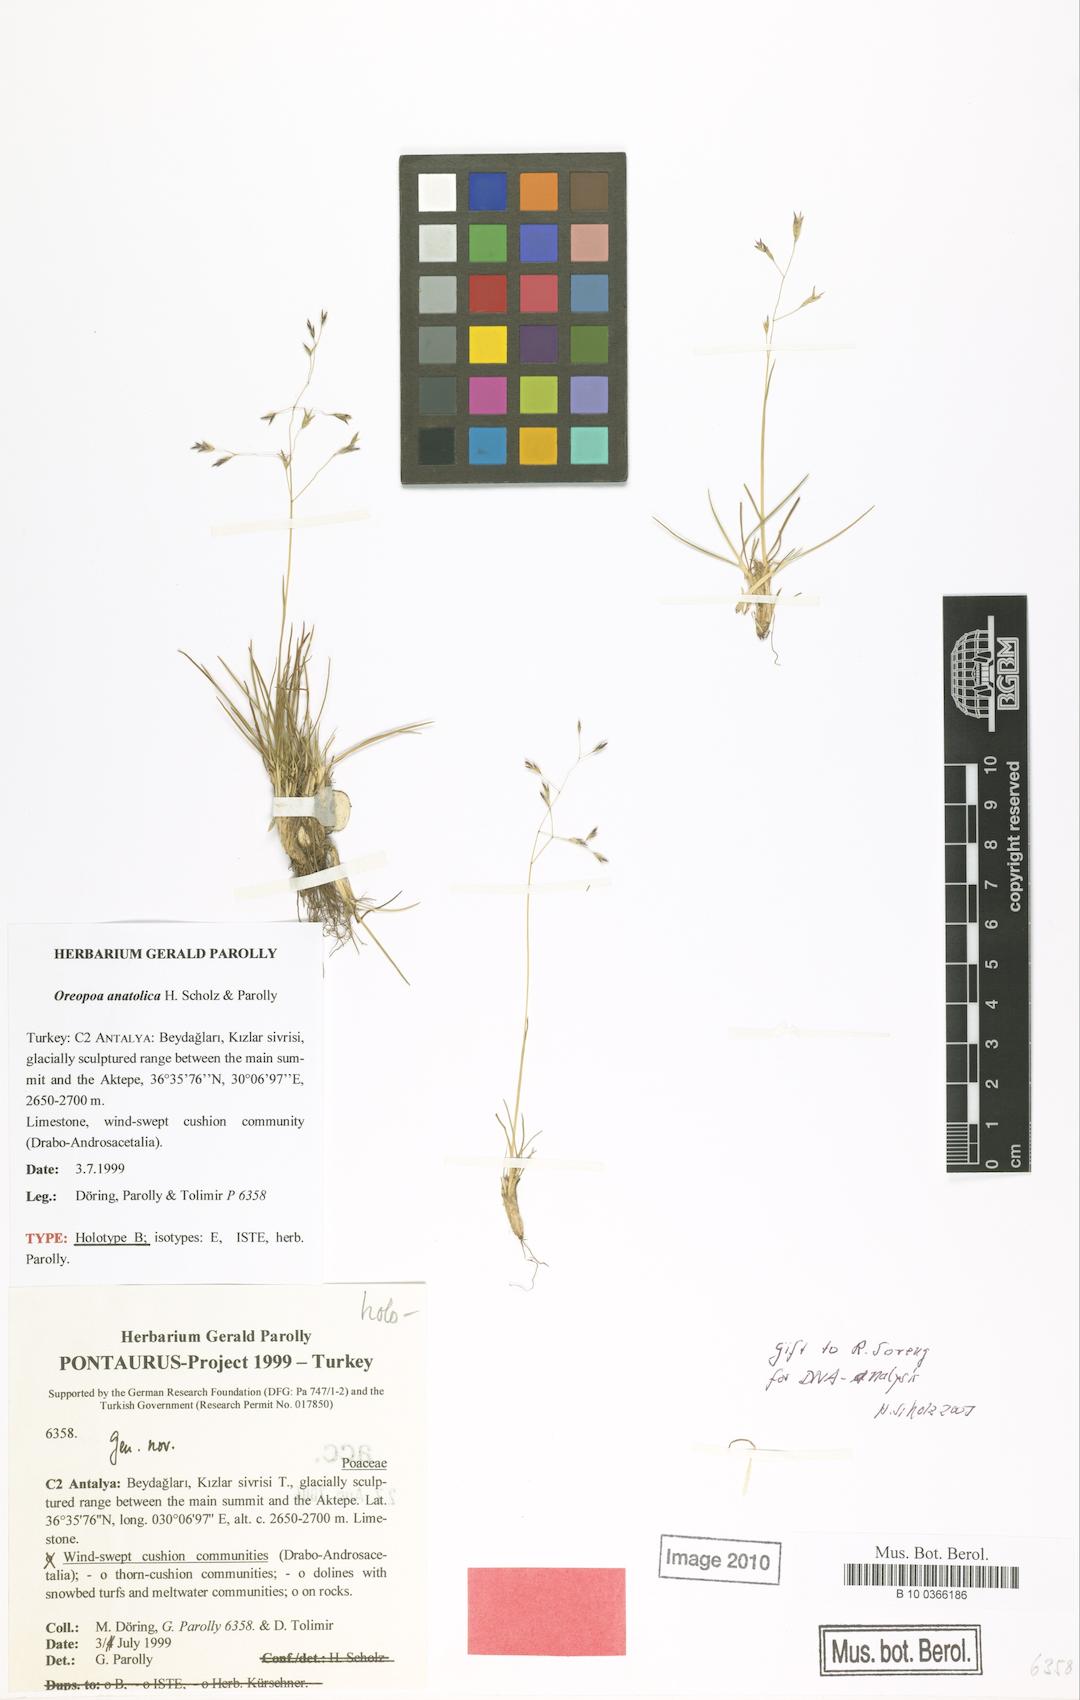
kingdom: Plantae
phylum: Tracheophyta
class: Liliopsida
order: Poales
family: Poaceae
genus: Oreopoa
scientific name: Oreopoa anatolica
